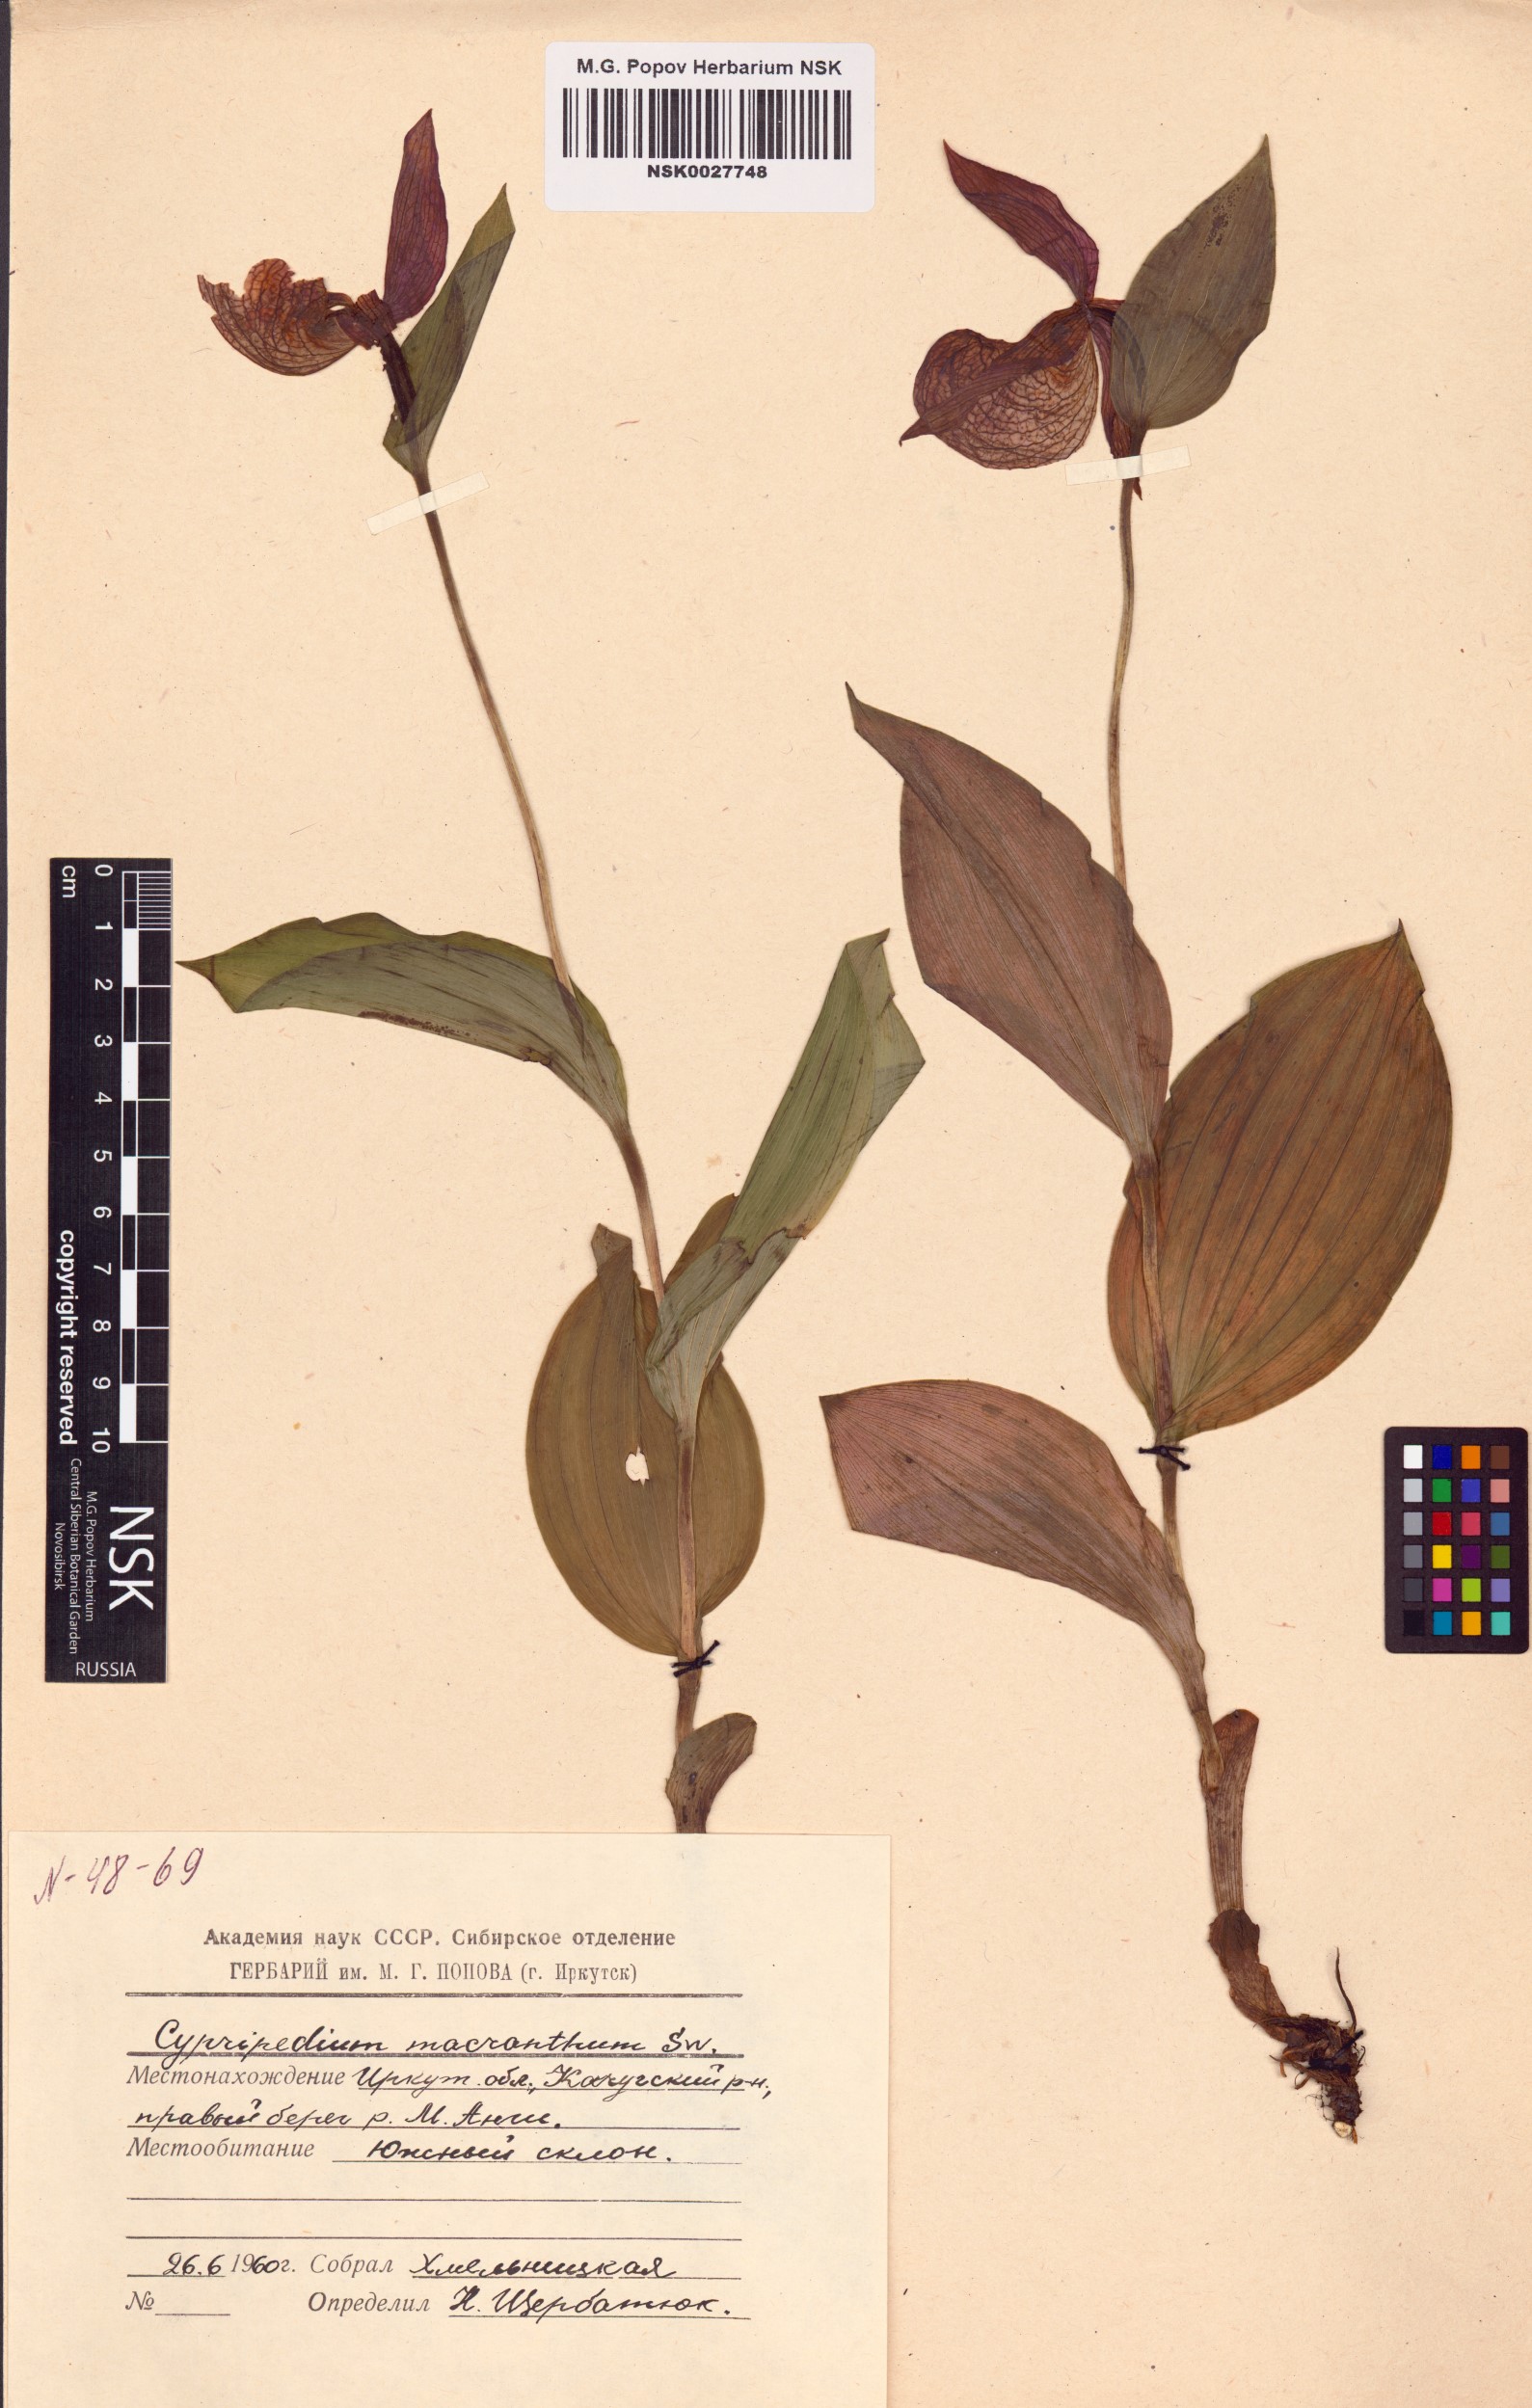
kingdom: Plantae
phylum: Tracheophyta
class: Liliopsida
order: Asparagales
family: Orchidaceae
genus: Cypripedium
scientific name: Cypripedium macranthos
